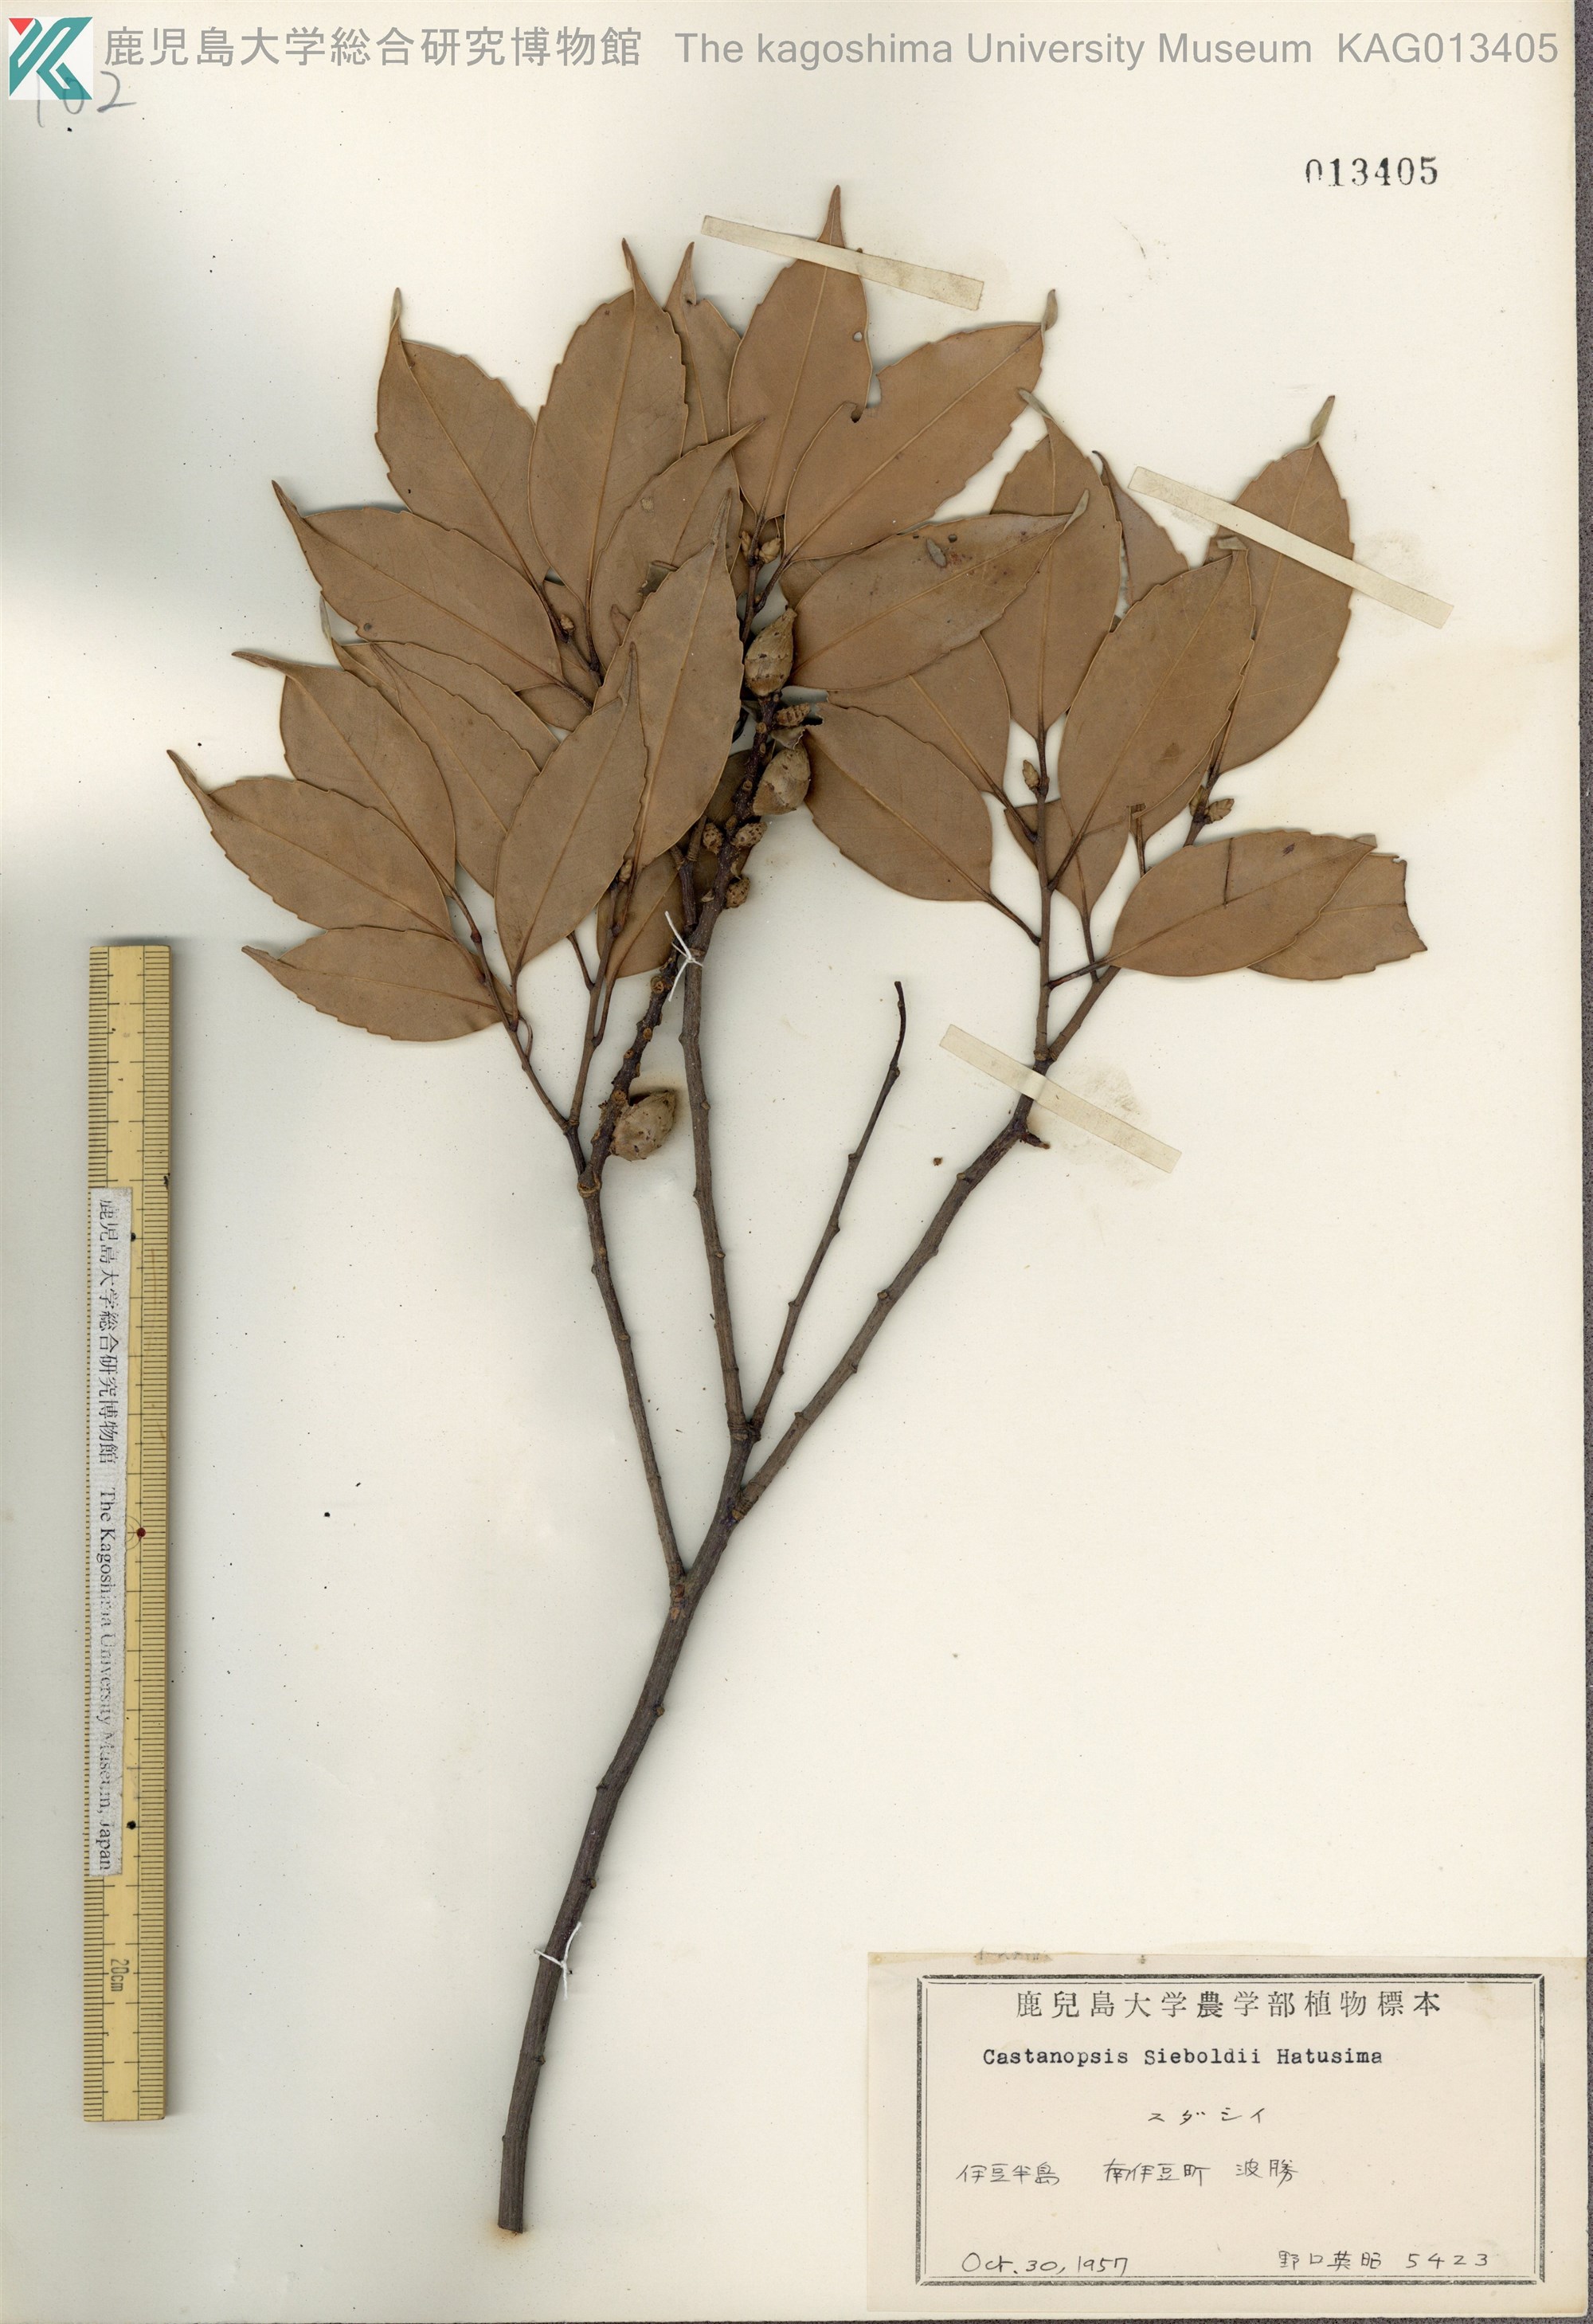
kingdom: Plantae
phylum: Tracheophyta
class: Magnoliopsida
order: Fagales
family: Fagaceae
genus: Castanopsis
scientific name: Castanopsis sieboldii
